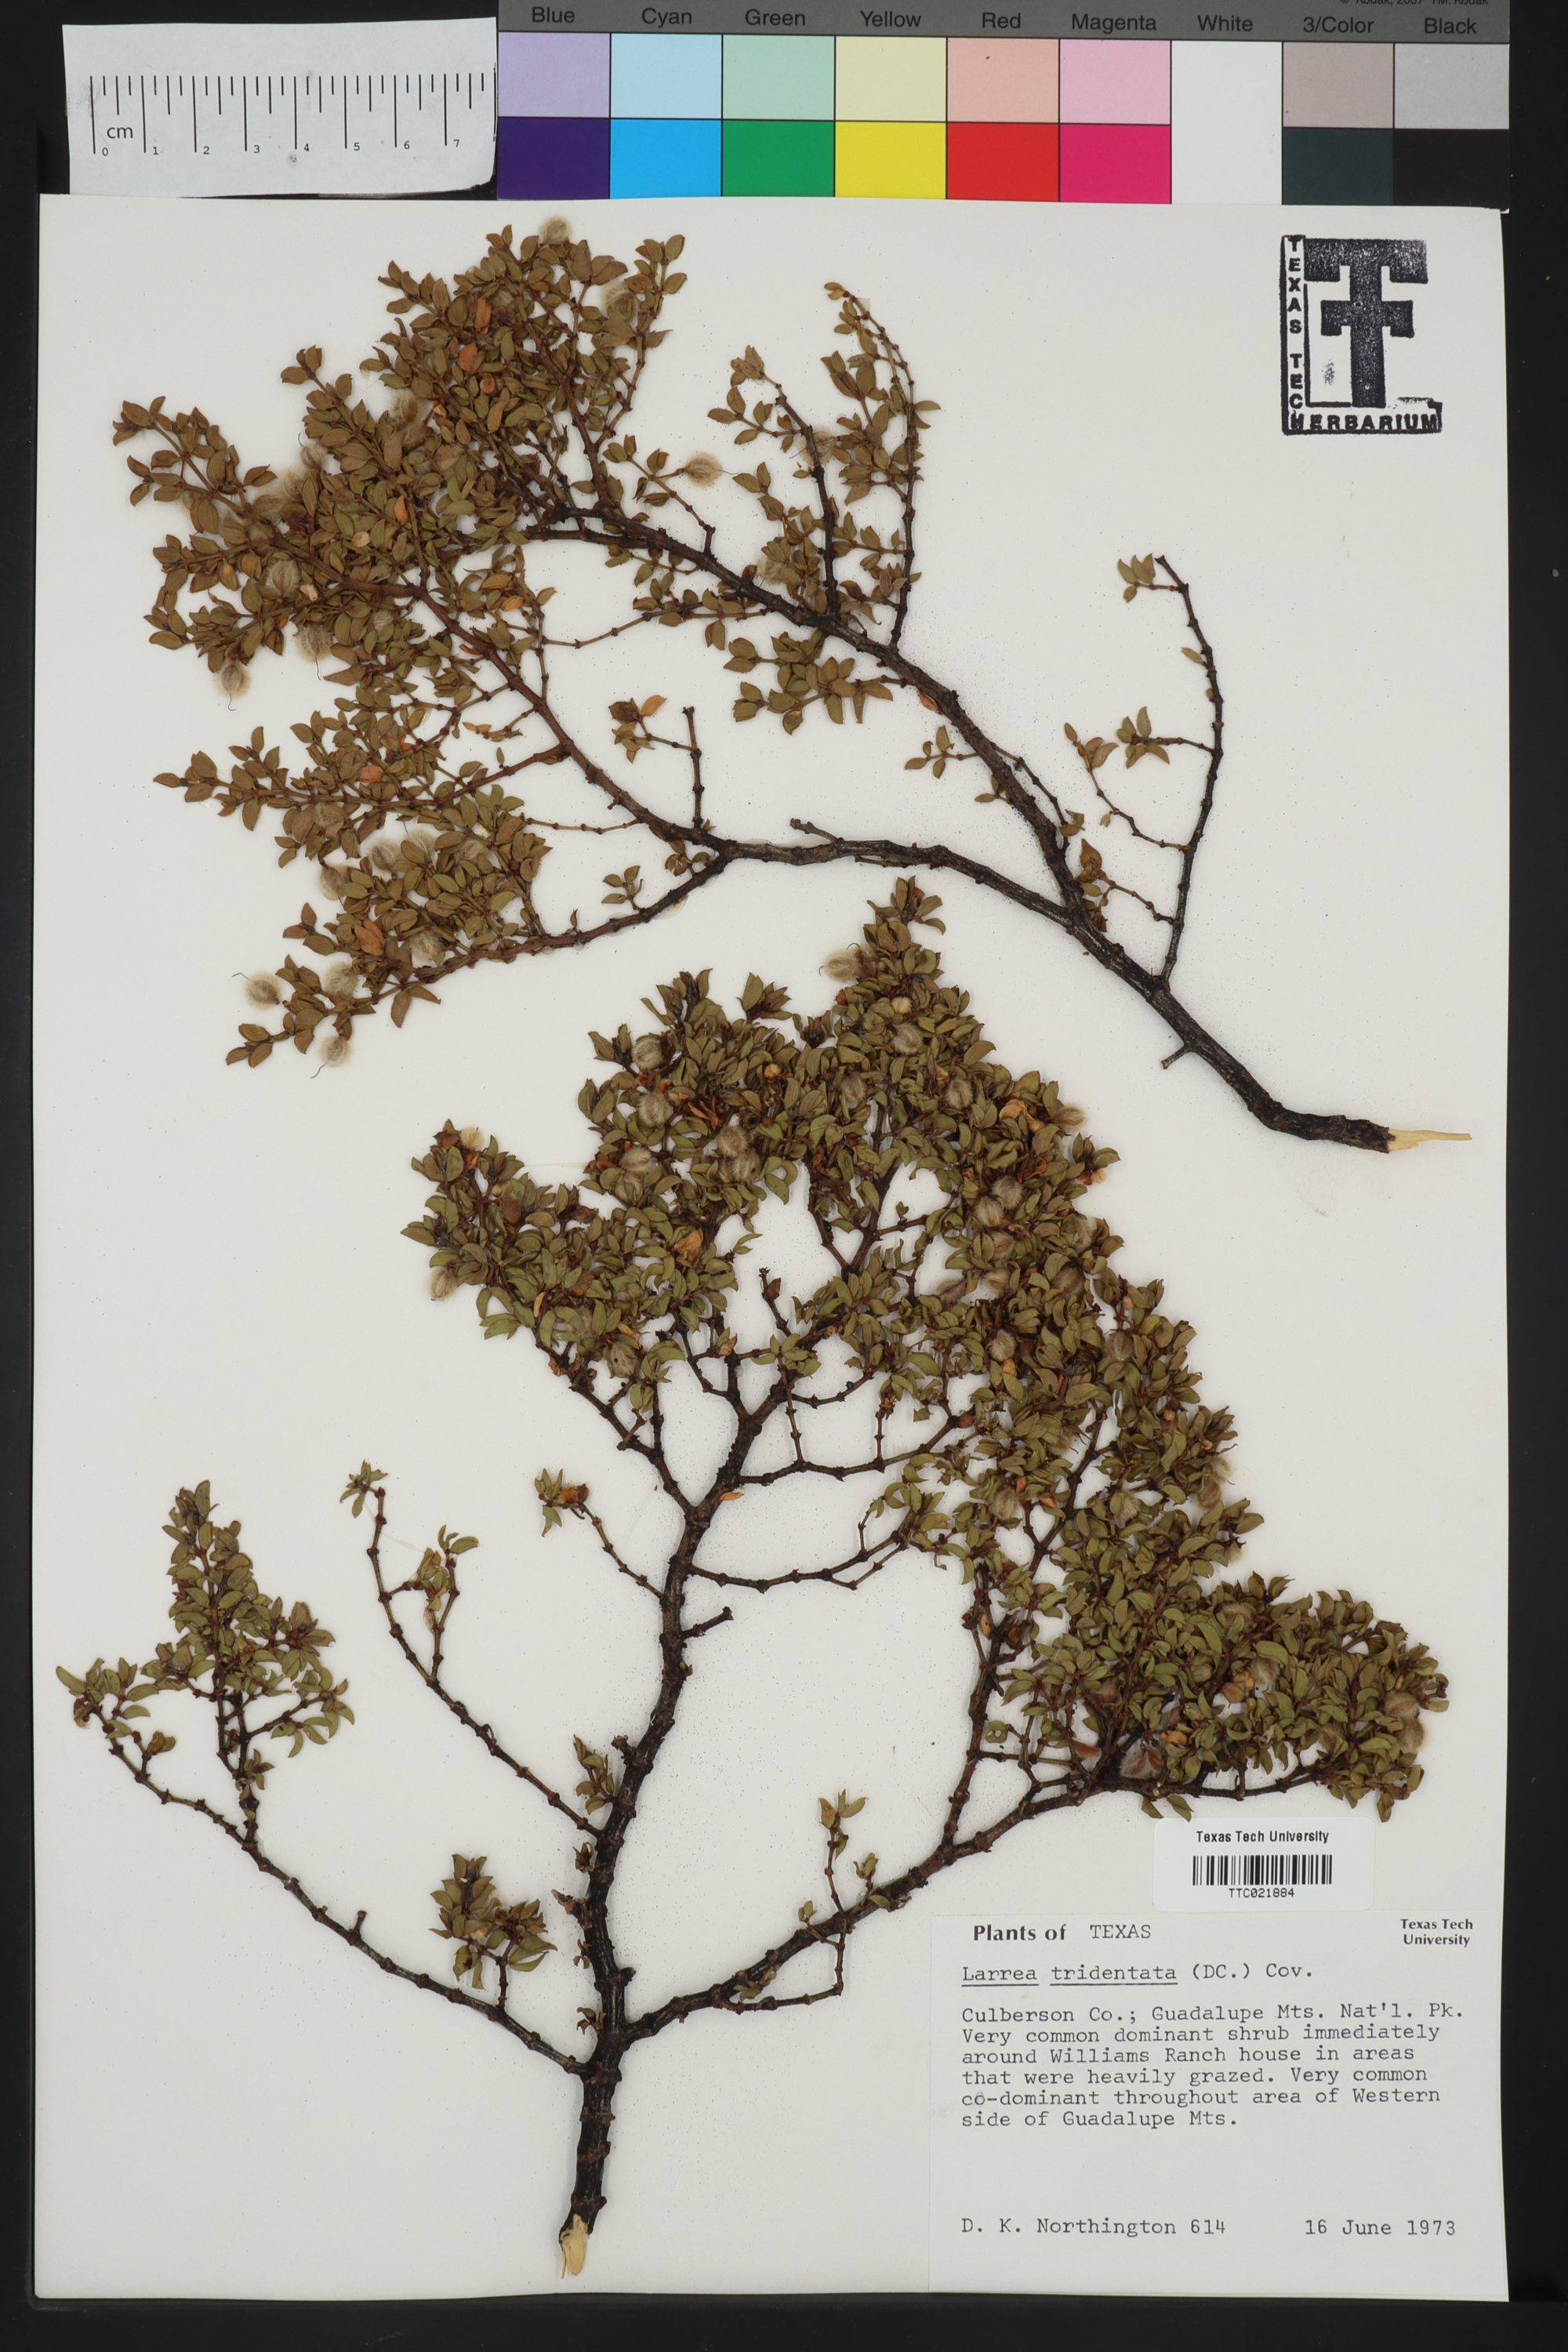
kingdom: Plantae
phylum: Tracheophyta
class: Magnoliopsida
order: Zygophyllales
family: Zygophyllaceae
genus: Larrea
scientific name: Larrea tridentata
